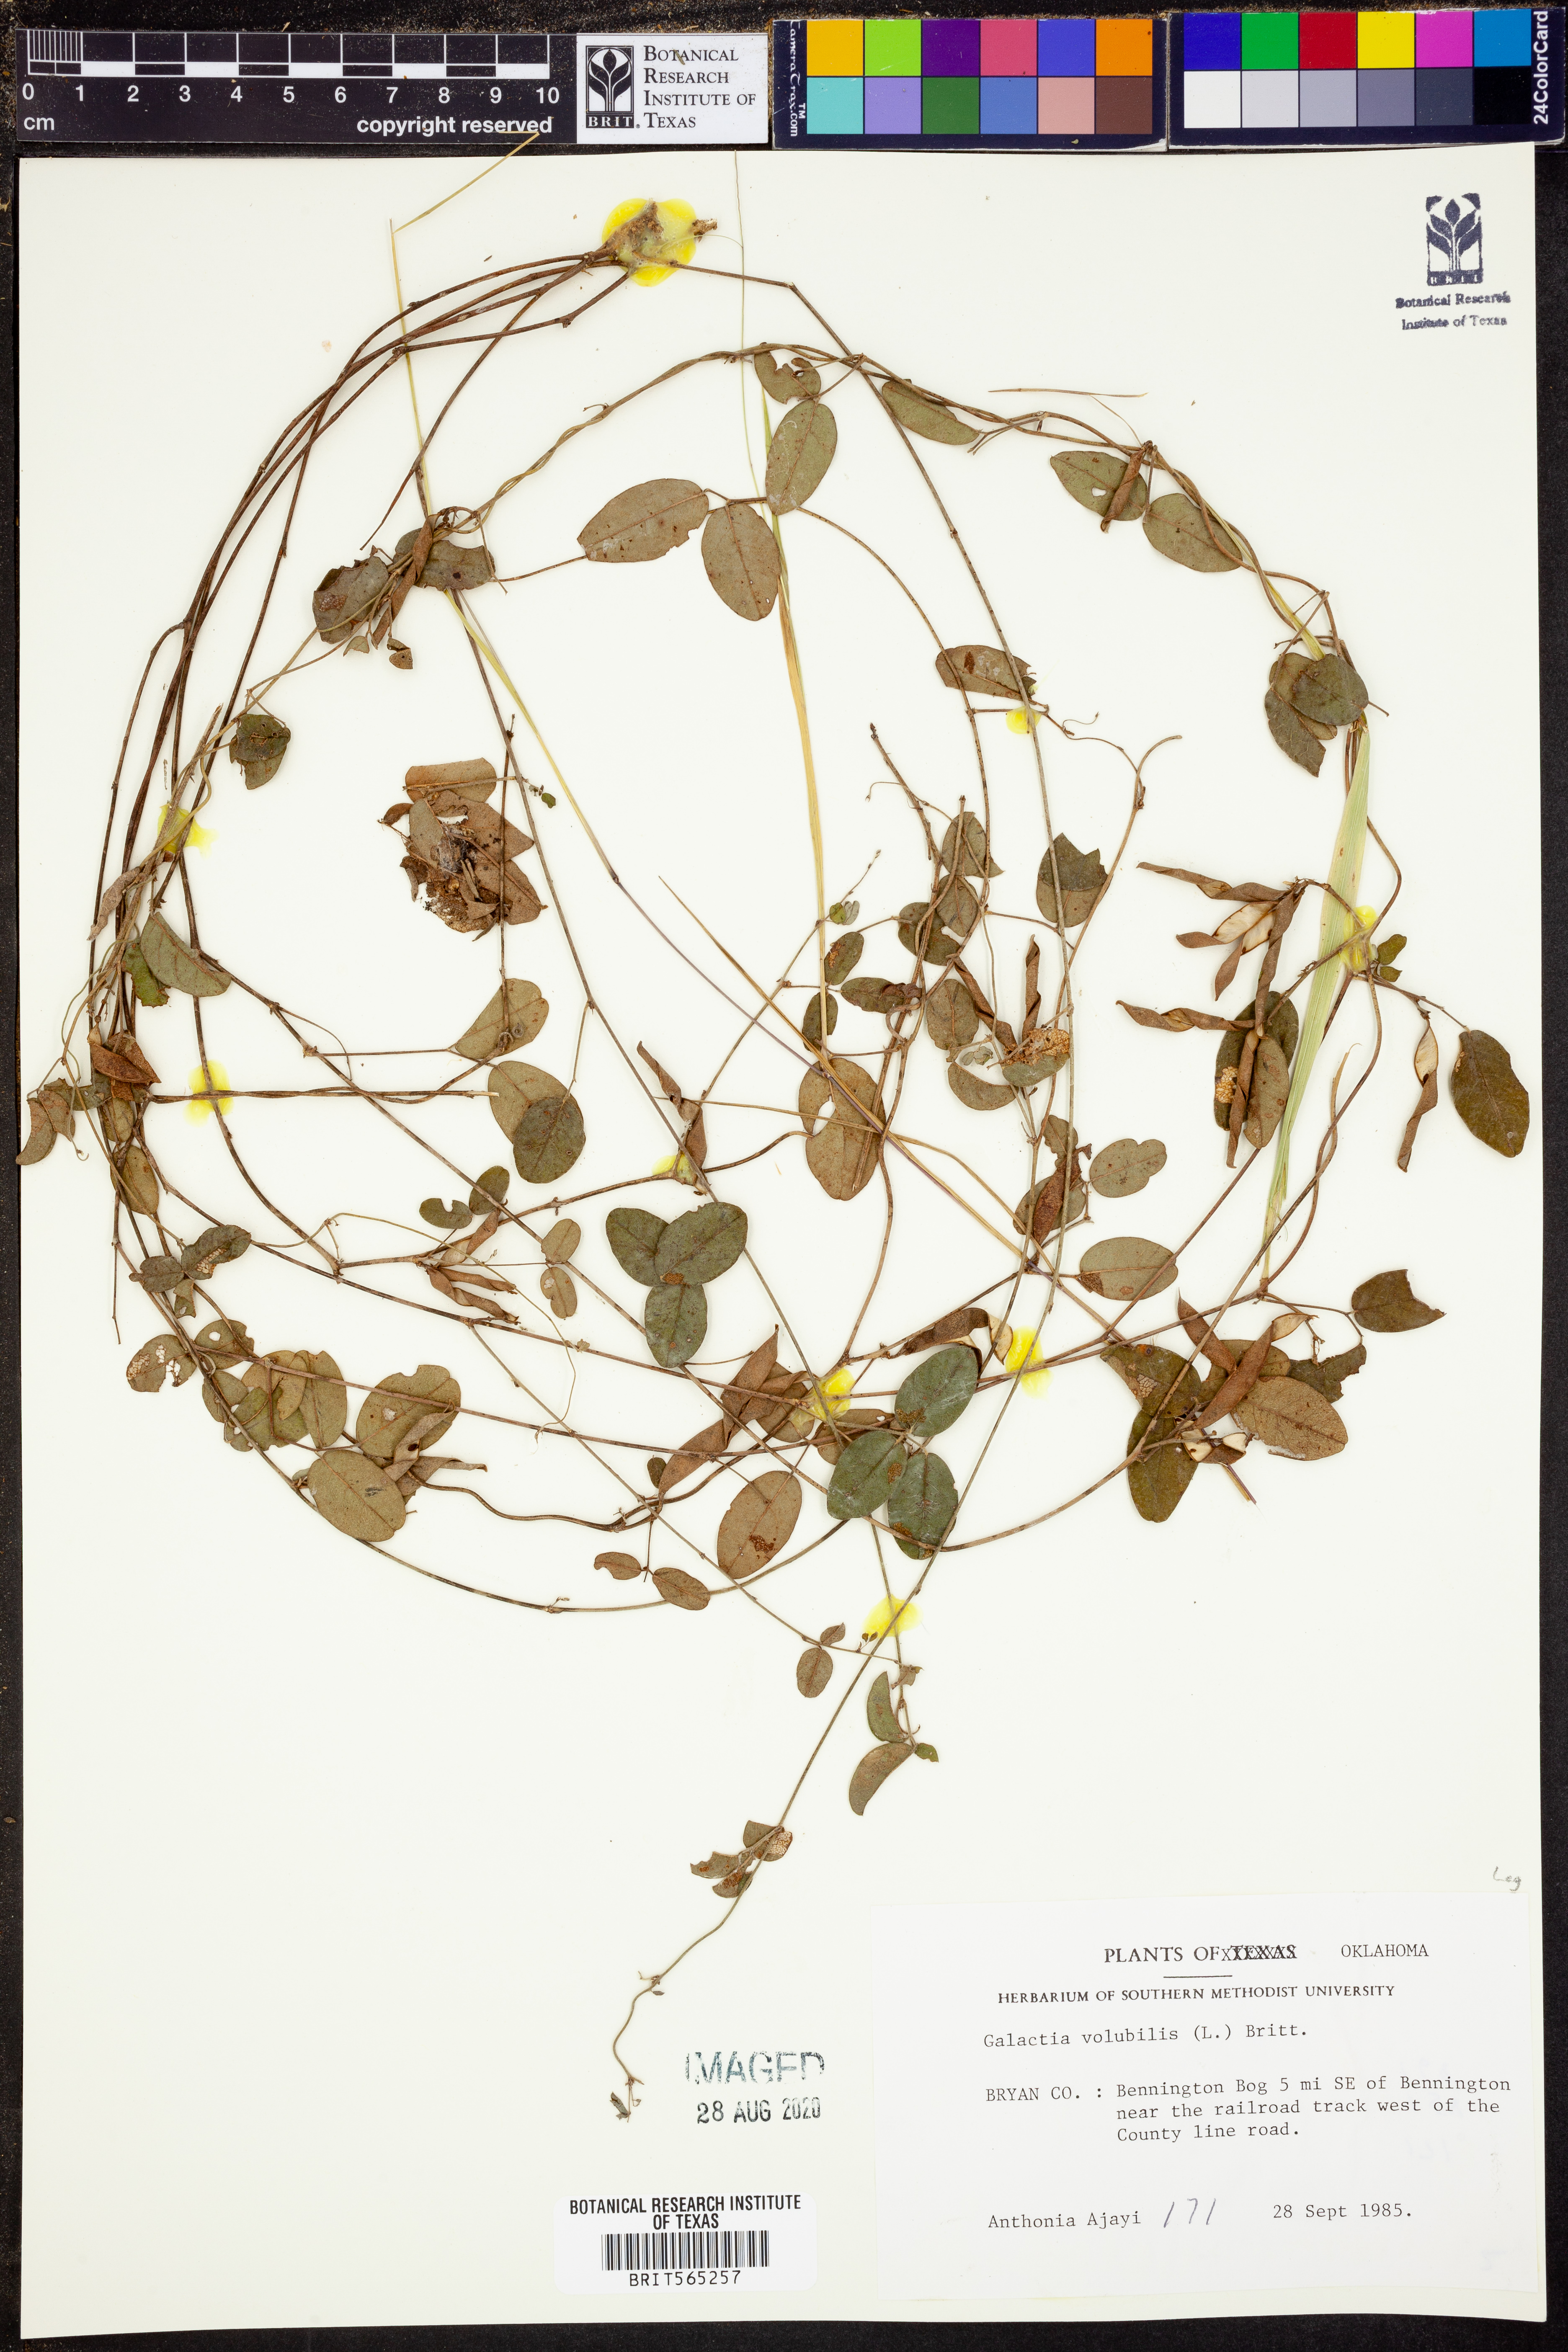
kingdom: Plantae
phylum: Tracheophyta
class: Magnoliopsida
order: Fabales
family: Fabaceae
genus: Galactia
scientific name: Galactia volubilis
